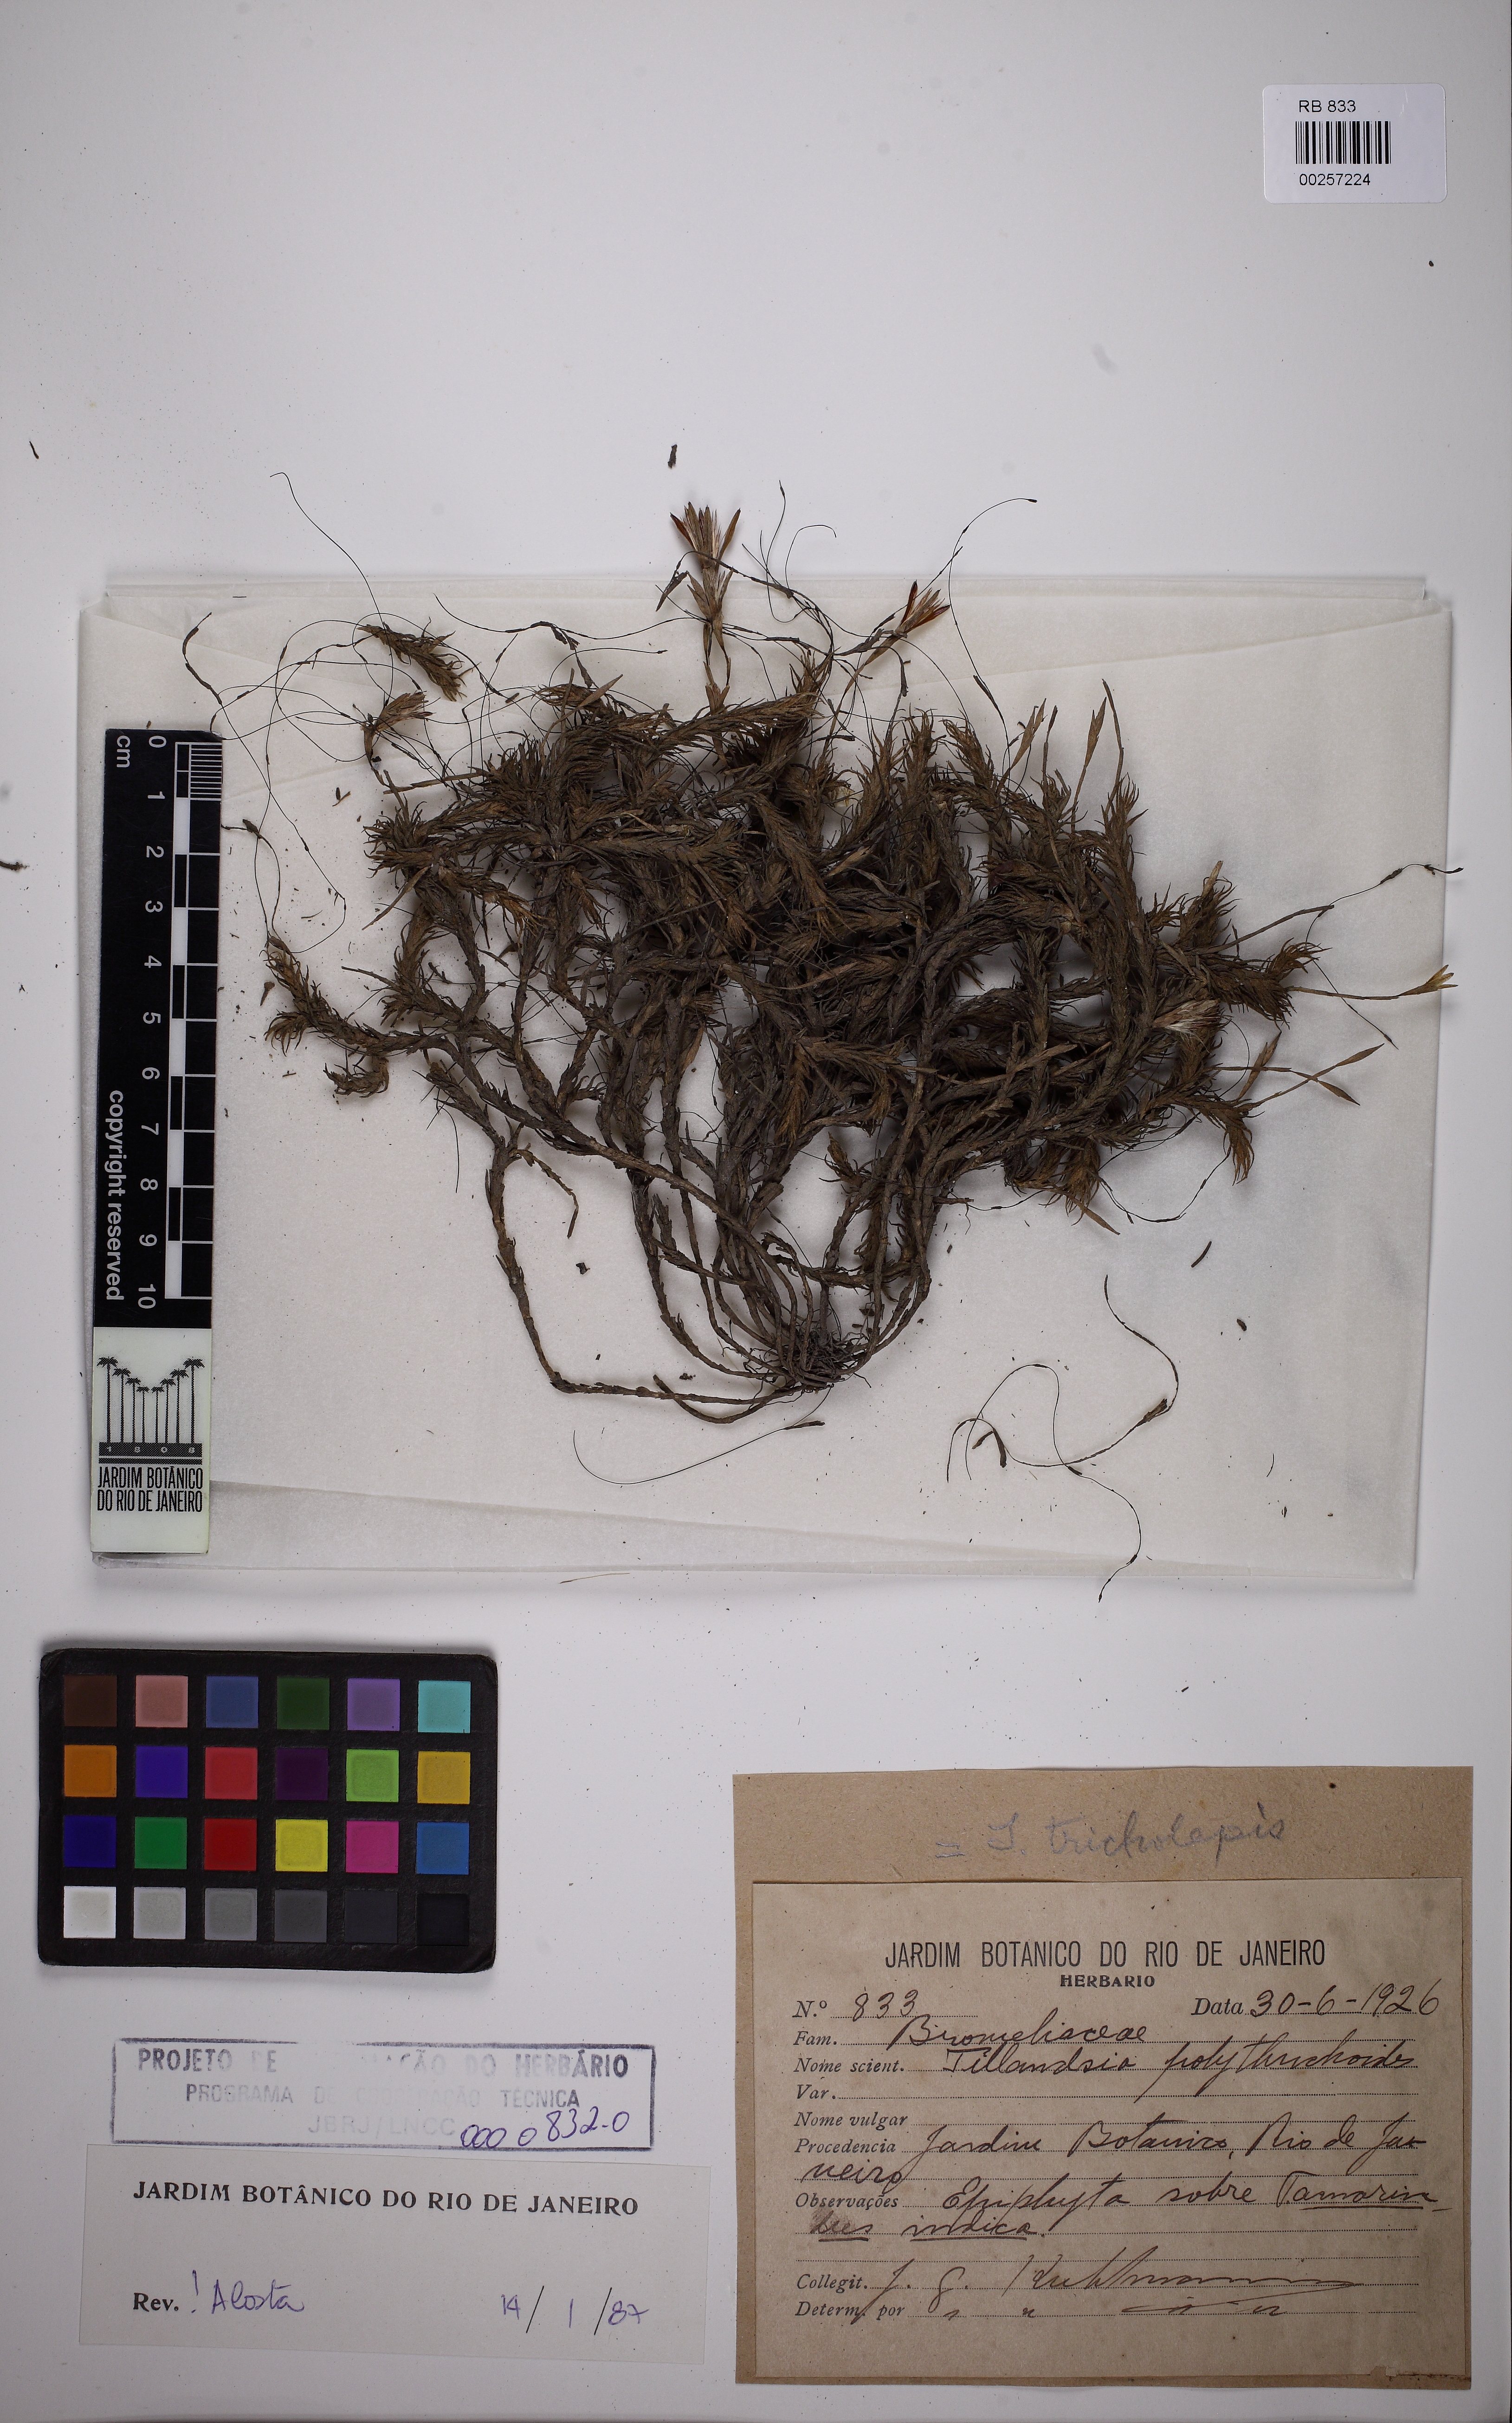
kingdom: Plantae
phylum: Tracheophyta
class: Liliopsida
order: Poales
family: Bromeliaceae
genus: Tillandsia
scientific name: Tillandsia tricholepis
